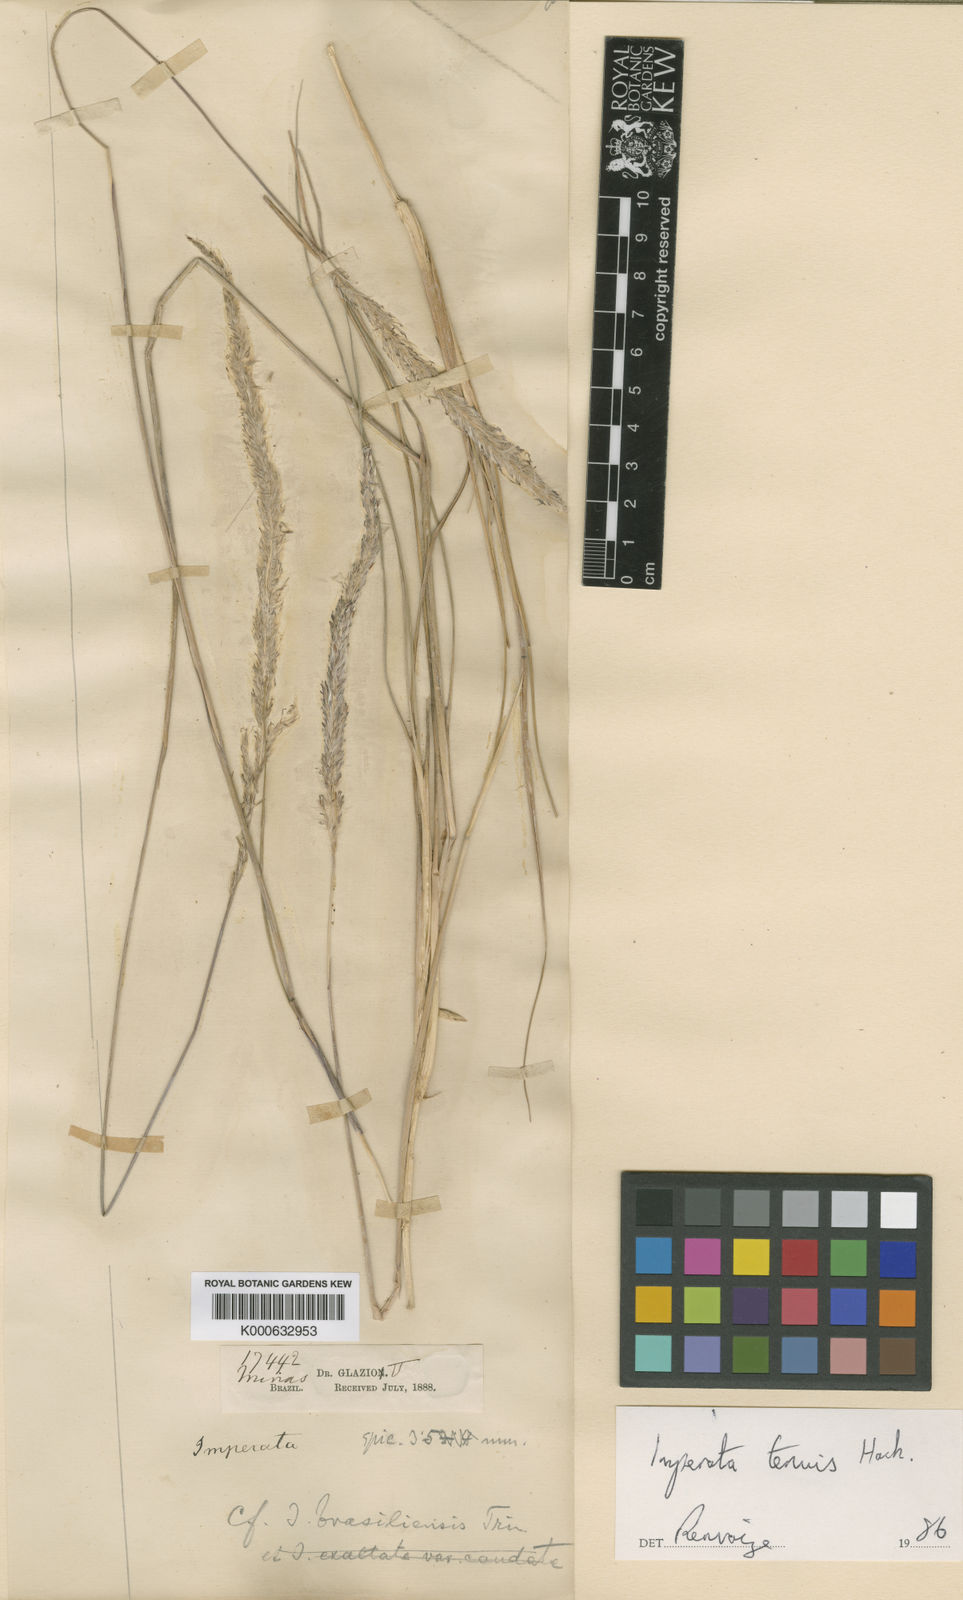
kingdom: Plantae
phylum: Tracheophyta
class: Liliopsida
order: Poales
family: Poaceae
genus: Imperata
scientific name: Imperata tenuis
